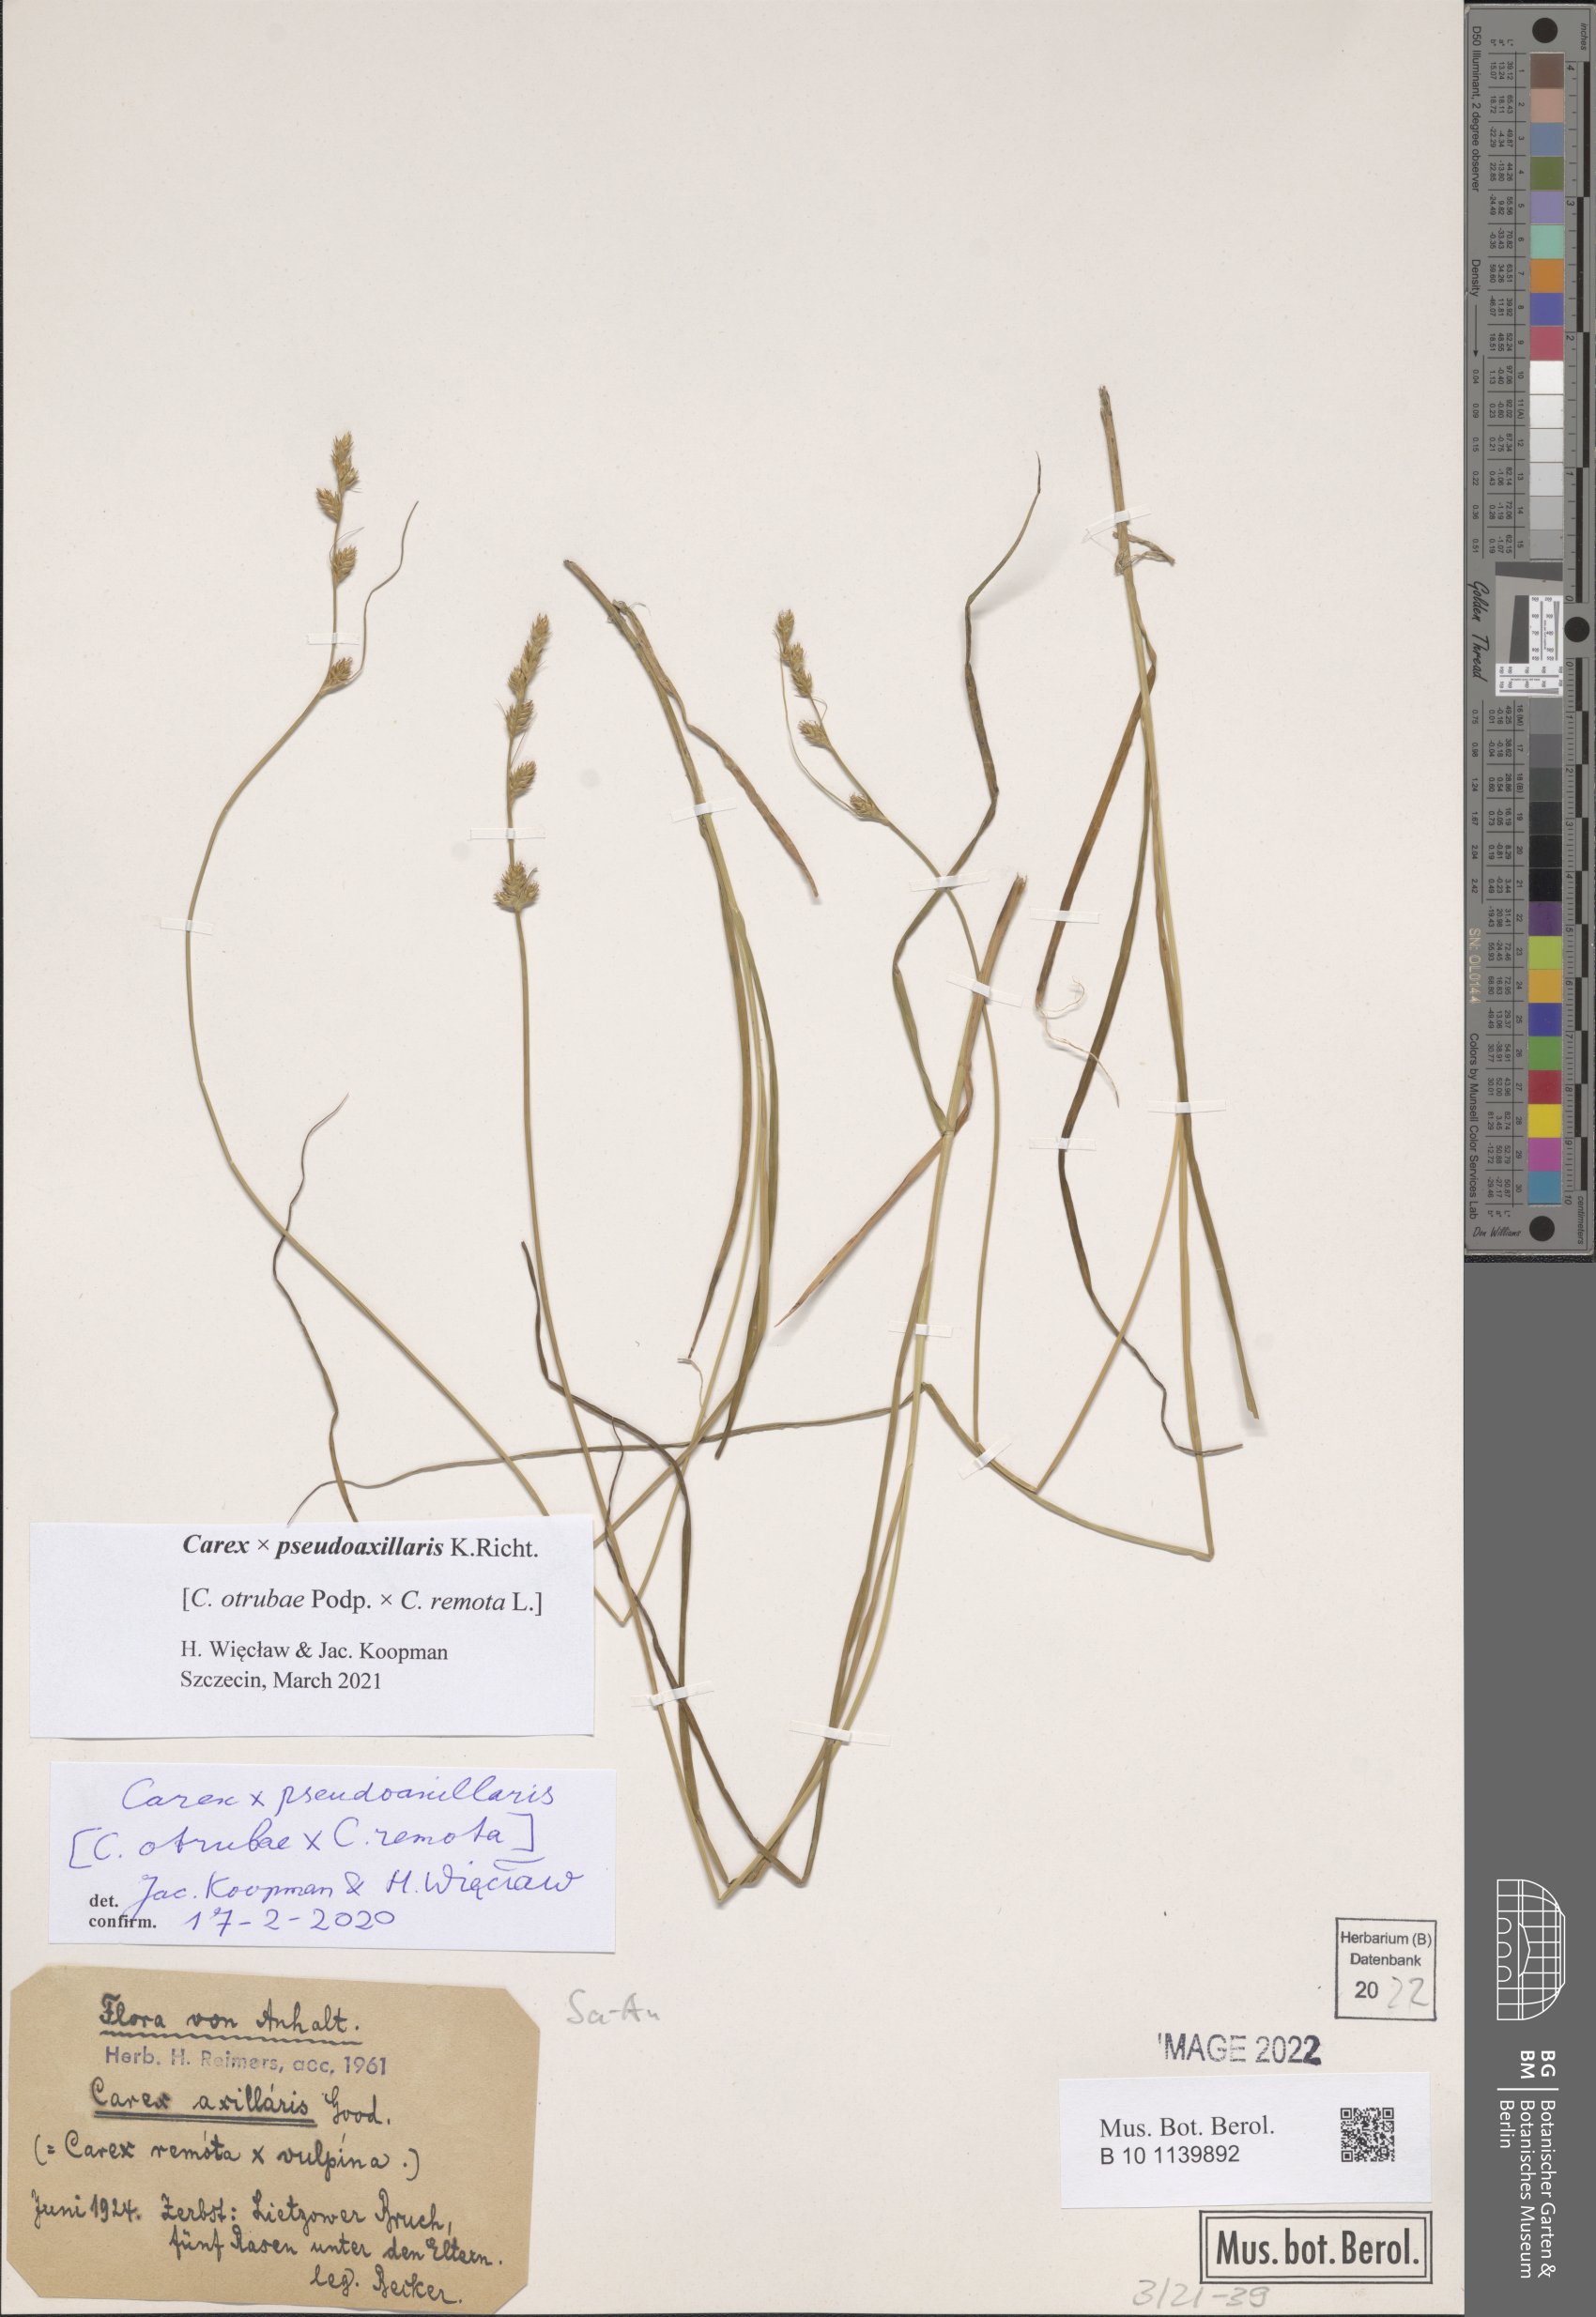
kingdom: Plantae
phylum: Tracheophyta
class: Liliopsida
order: Poales
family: Cyperaceae
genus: Carex
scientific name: Carex pseudoaxillaris
